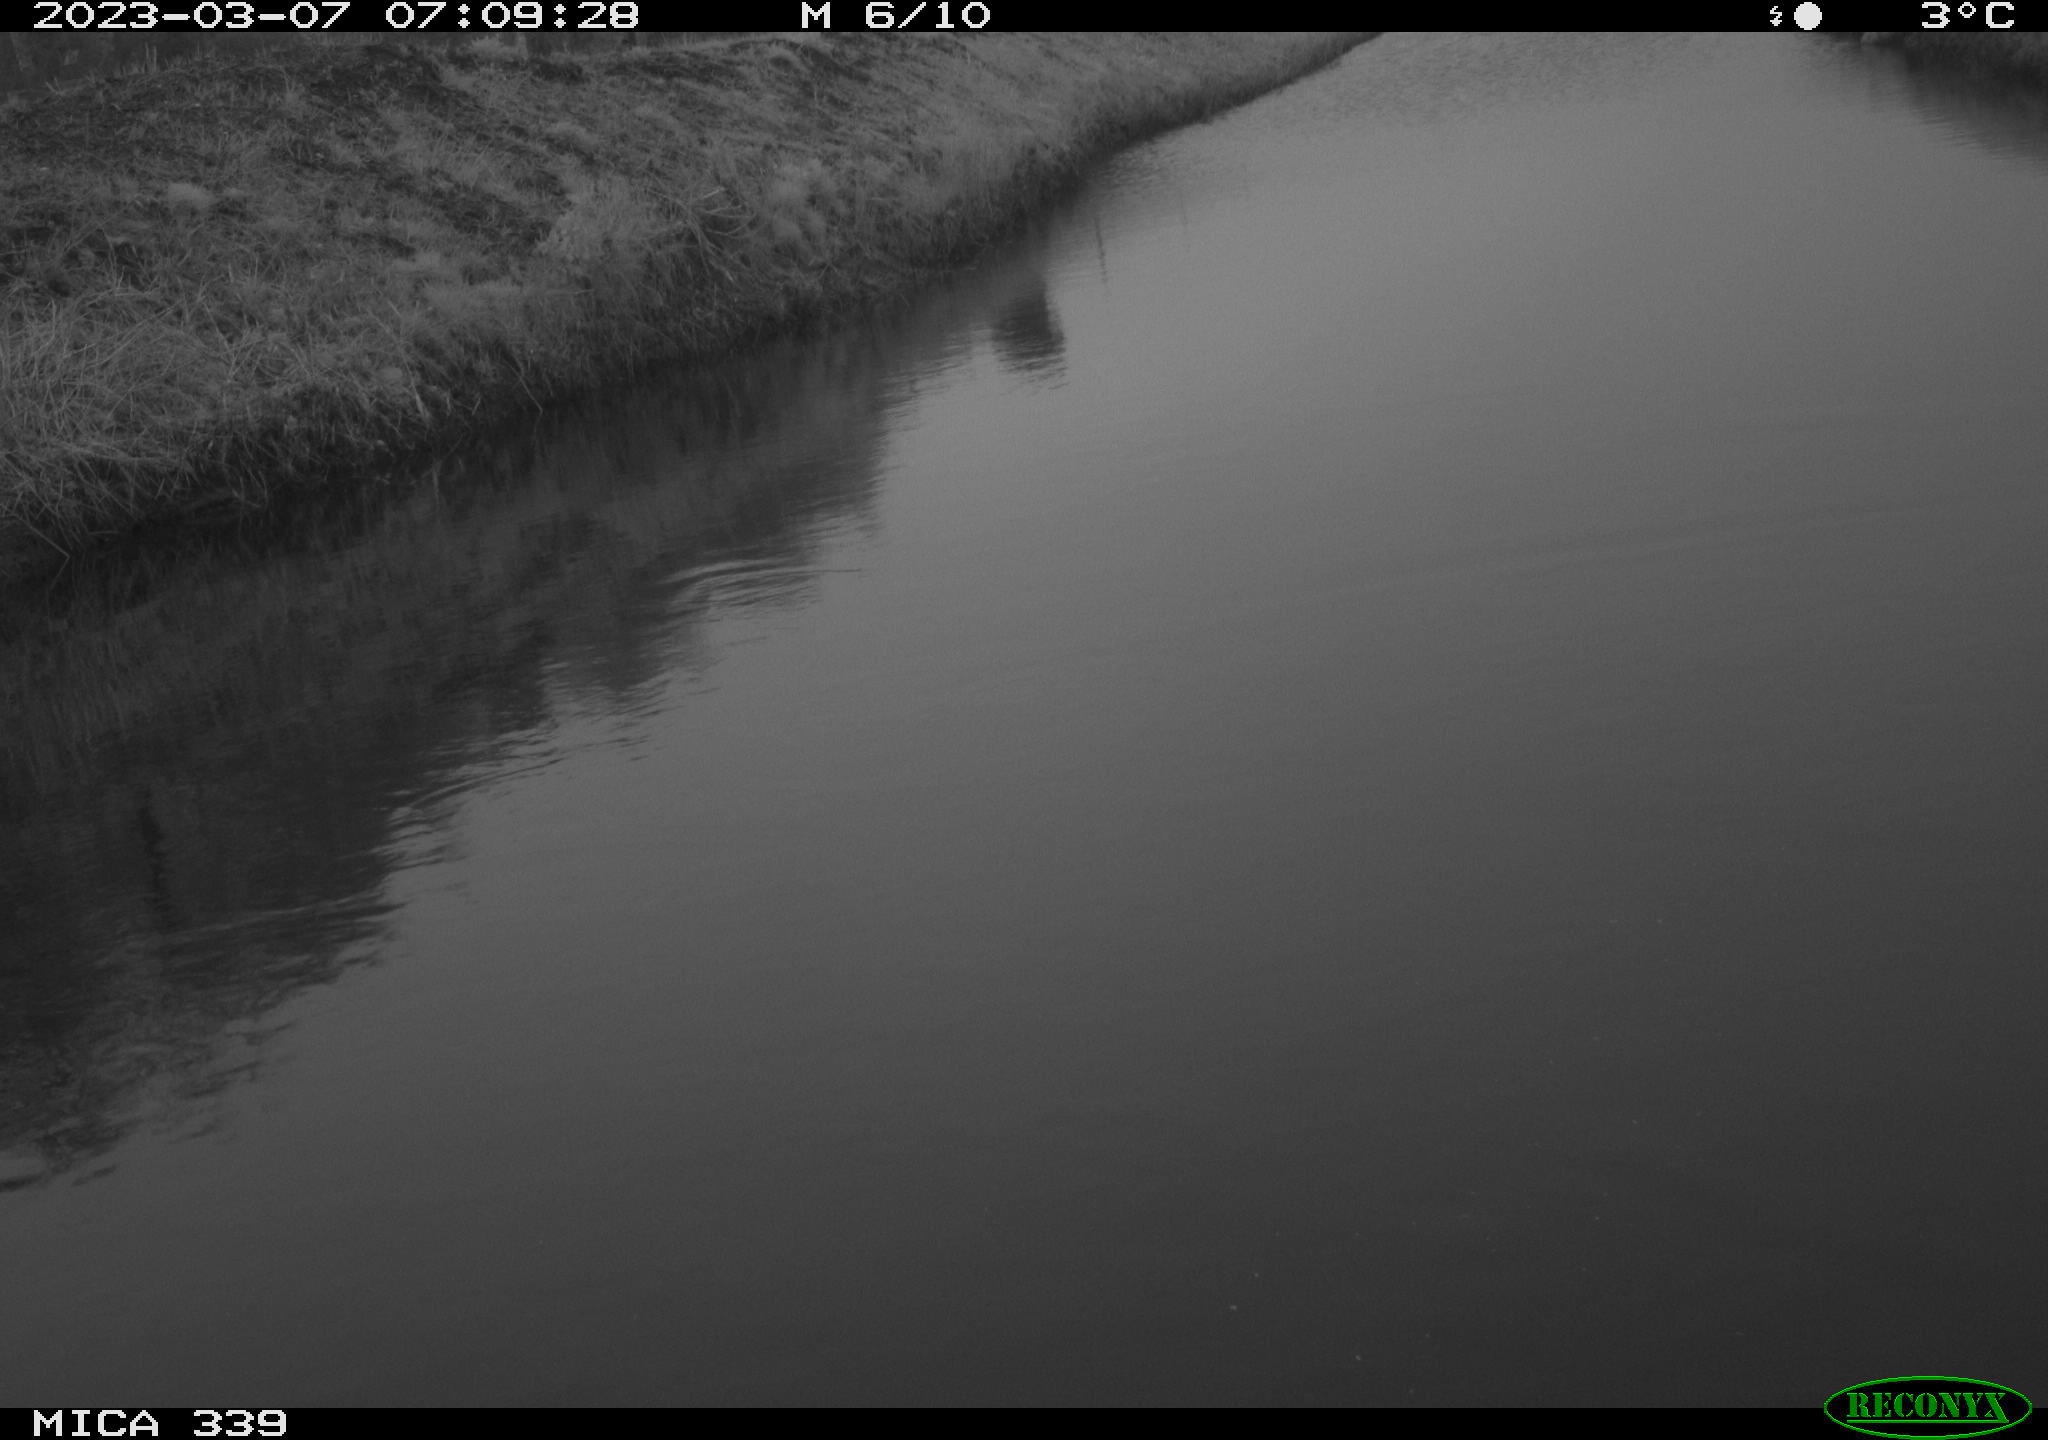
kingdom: Animalia
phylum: Chordata
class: Aves
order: Pelecaniformes
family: Ardeidae
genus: Ardea
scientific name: Ardea cinerea
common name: Grey heron
